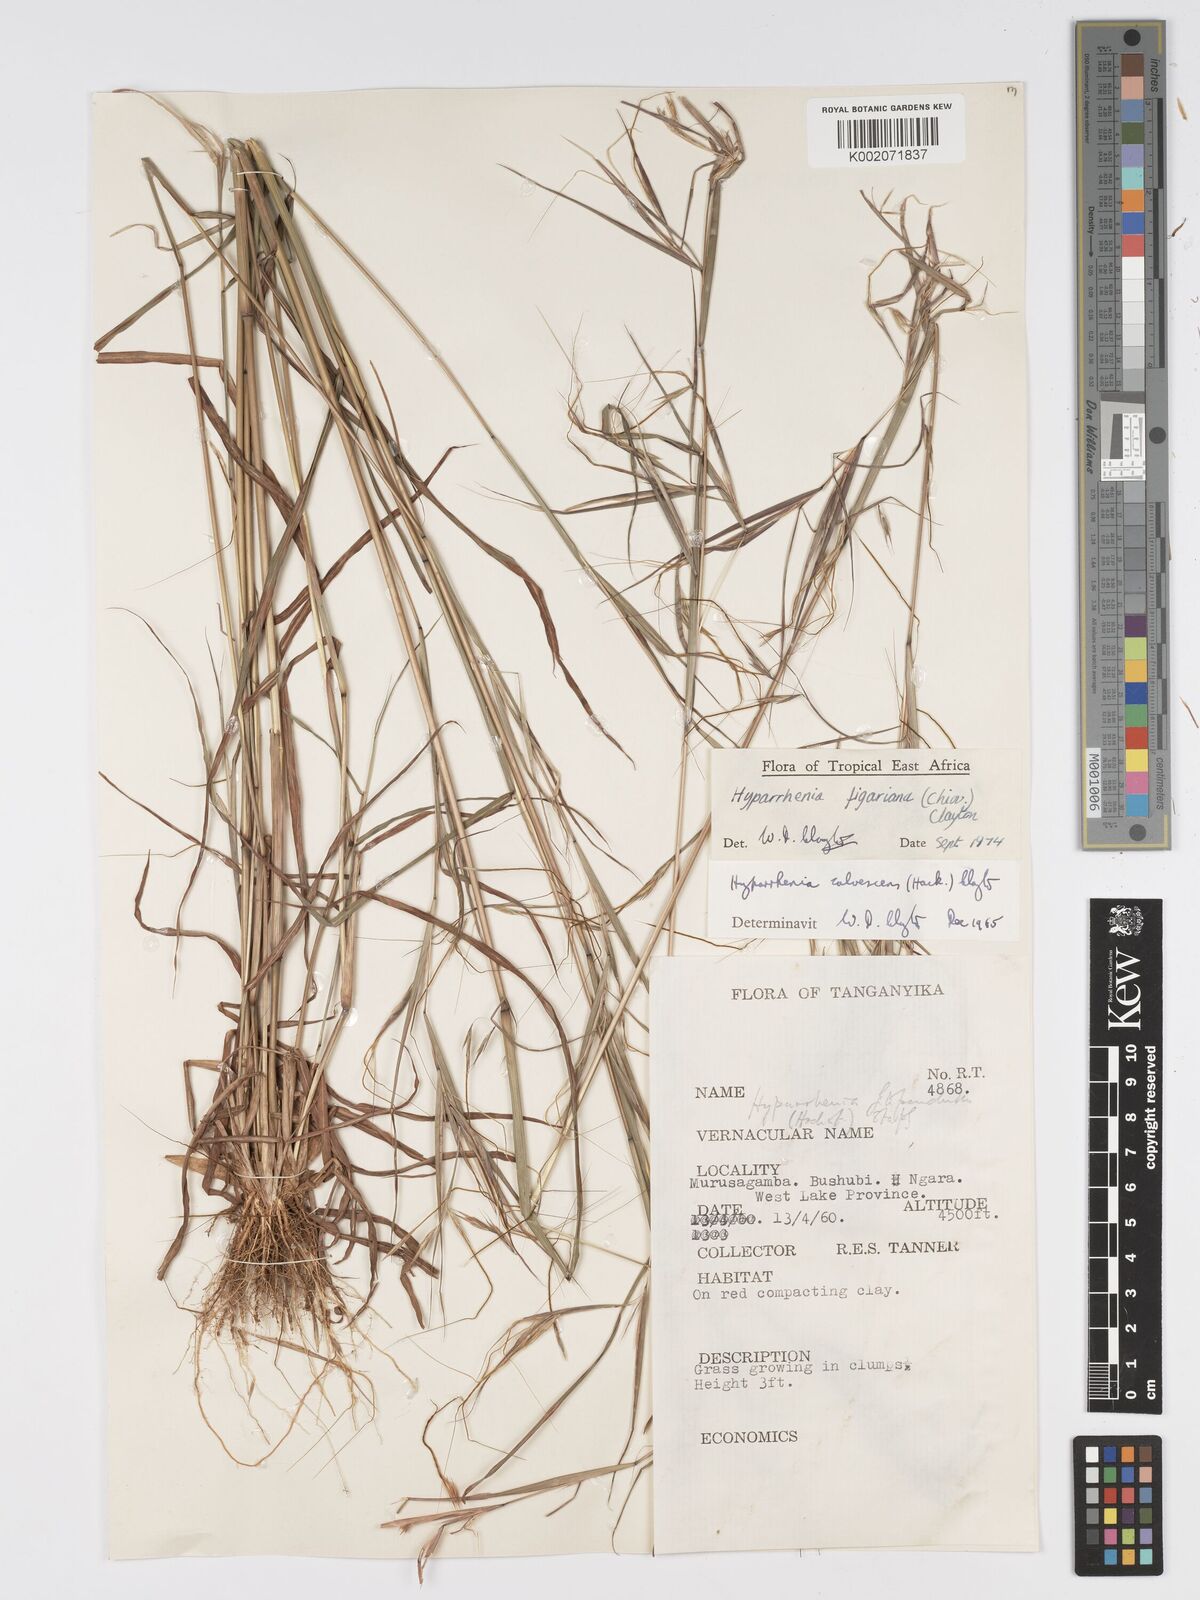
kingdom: Plantae
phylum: Tracheophyta
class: Liliopsida
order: Poales
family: Poaceae
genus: Hyparrhenia
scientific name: Hyparrhenia figariana
